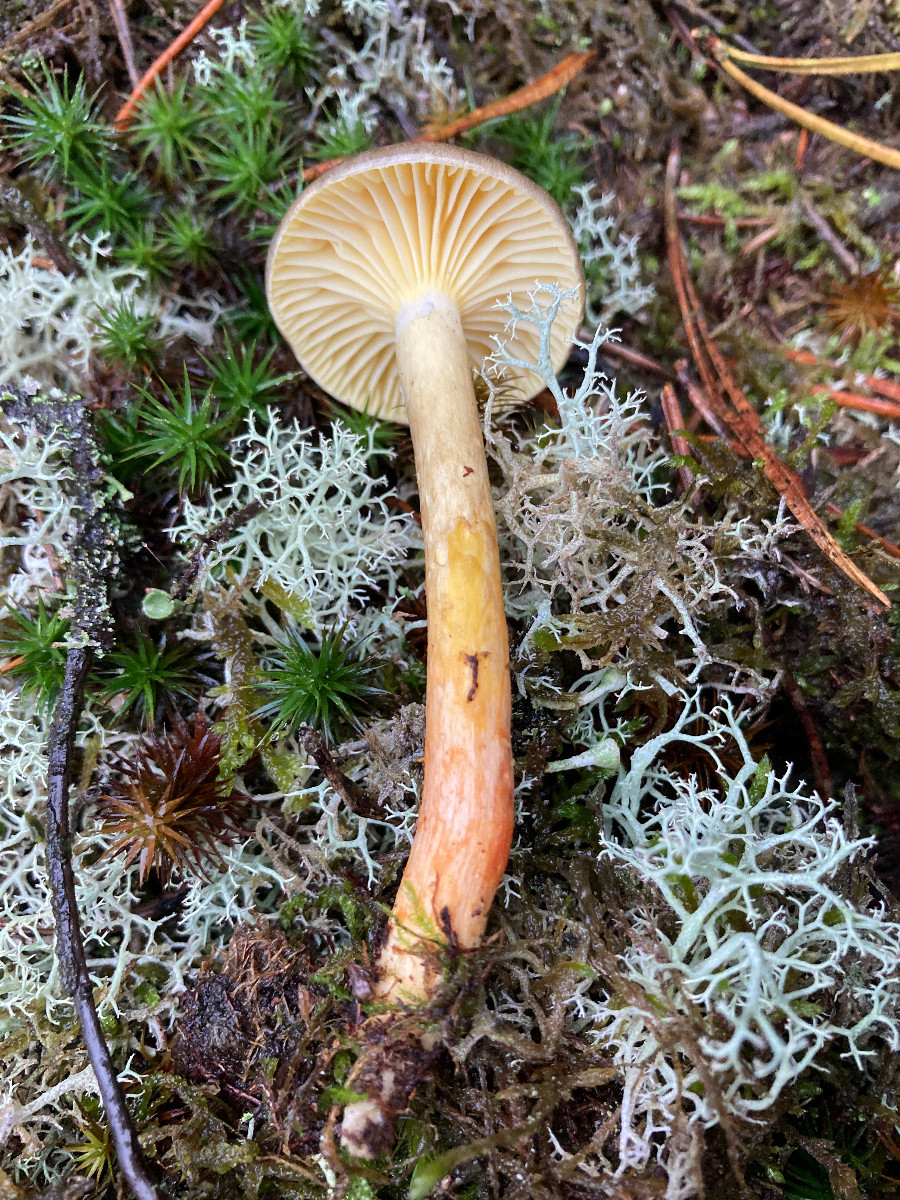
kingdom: Fungi
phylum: Basidiomycota
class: Agaricomycetes
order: Agaricales
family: Hygrophoraceae
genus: Hygrophorus
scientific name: Hygrophorus hypothejus
